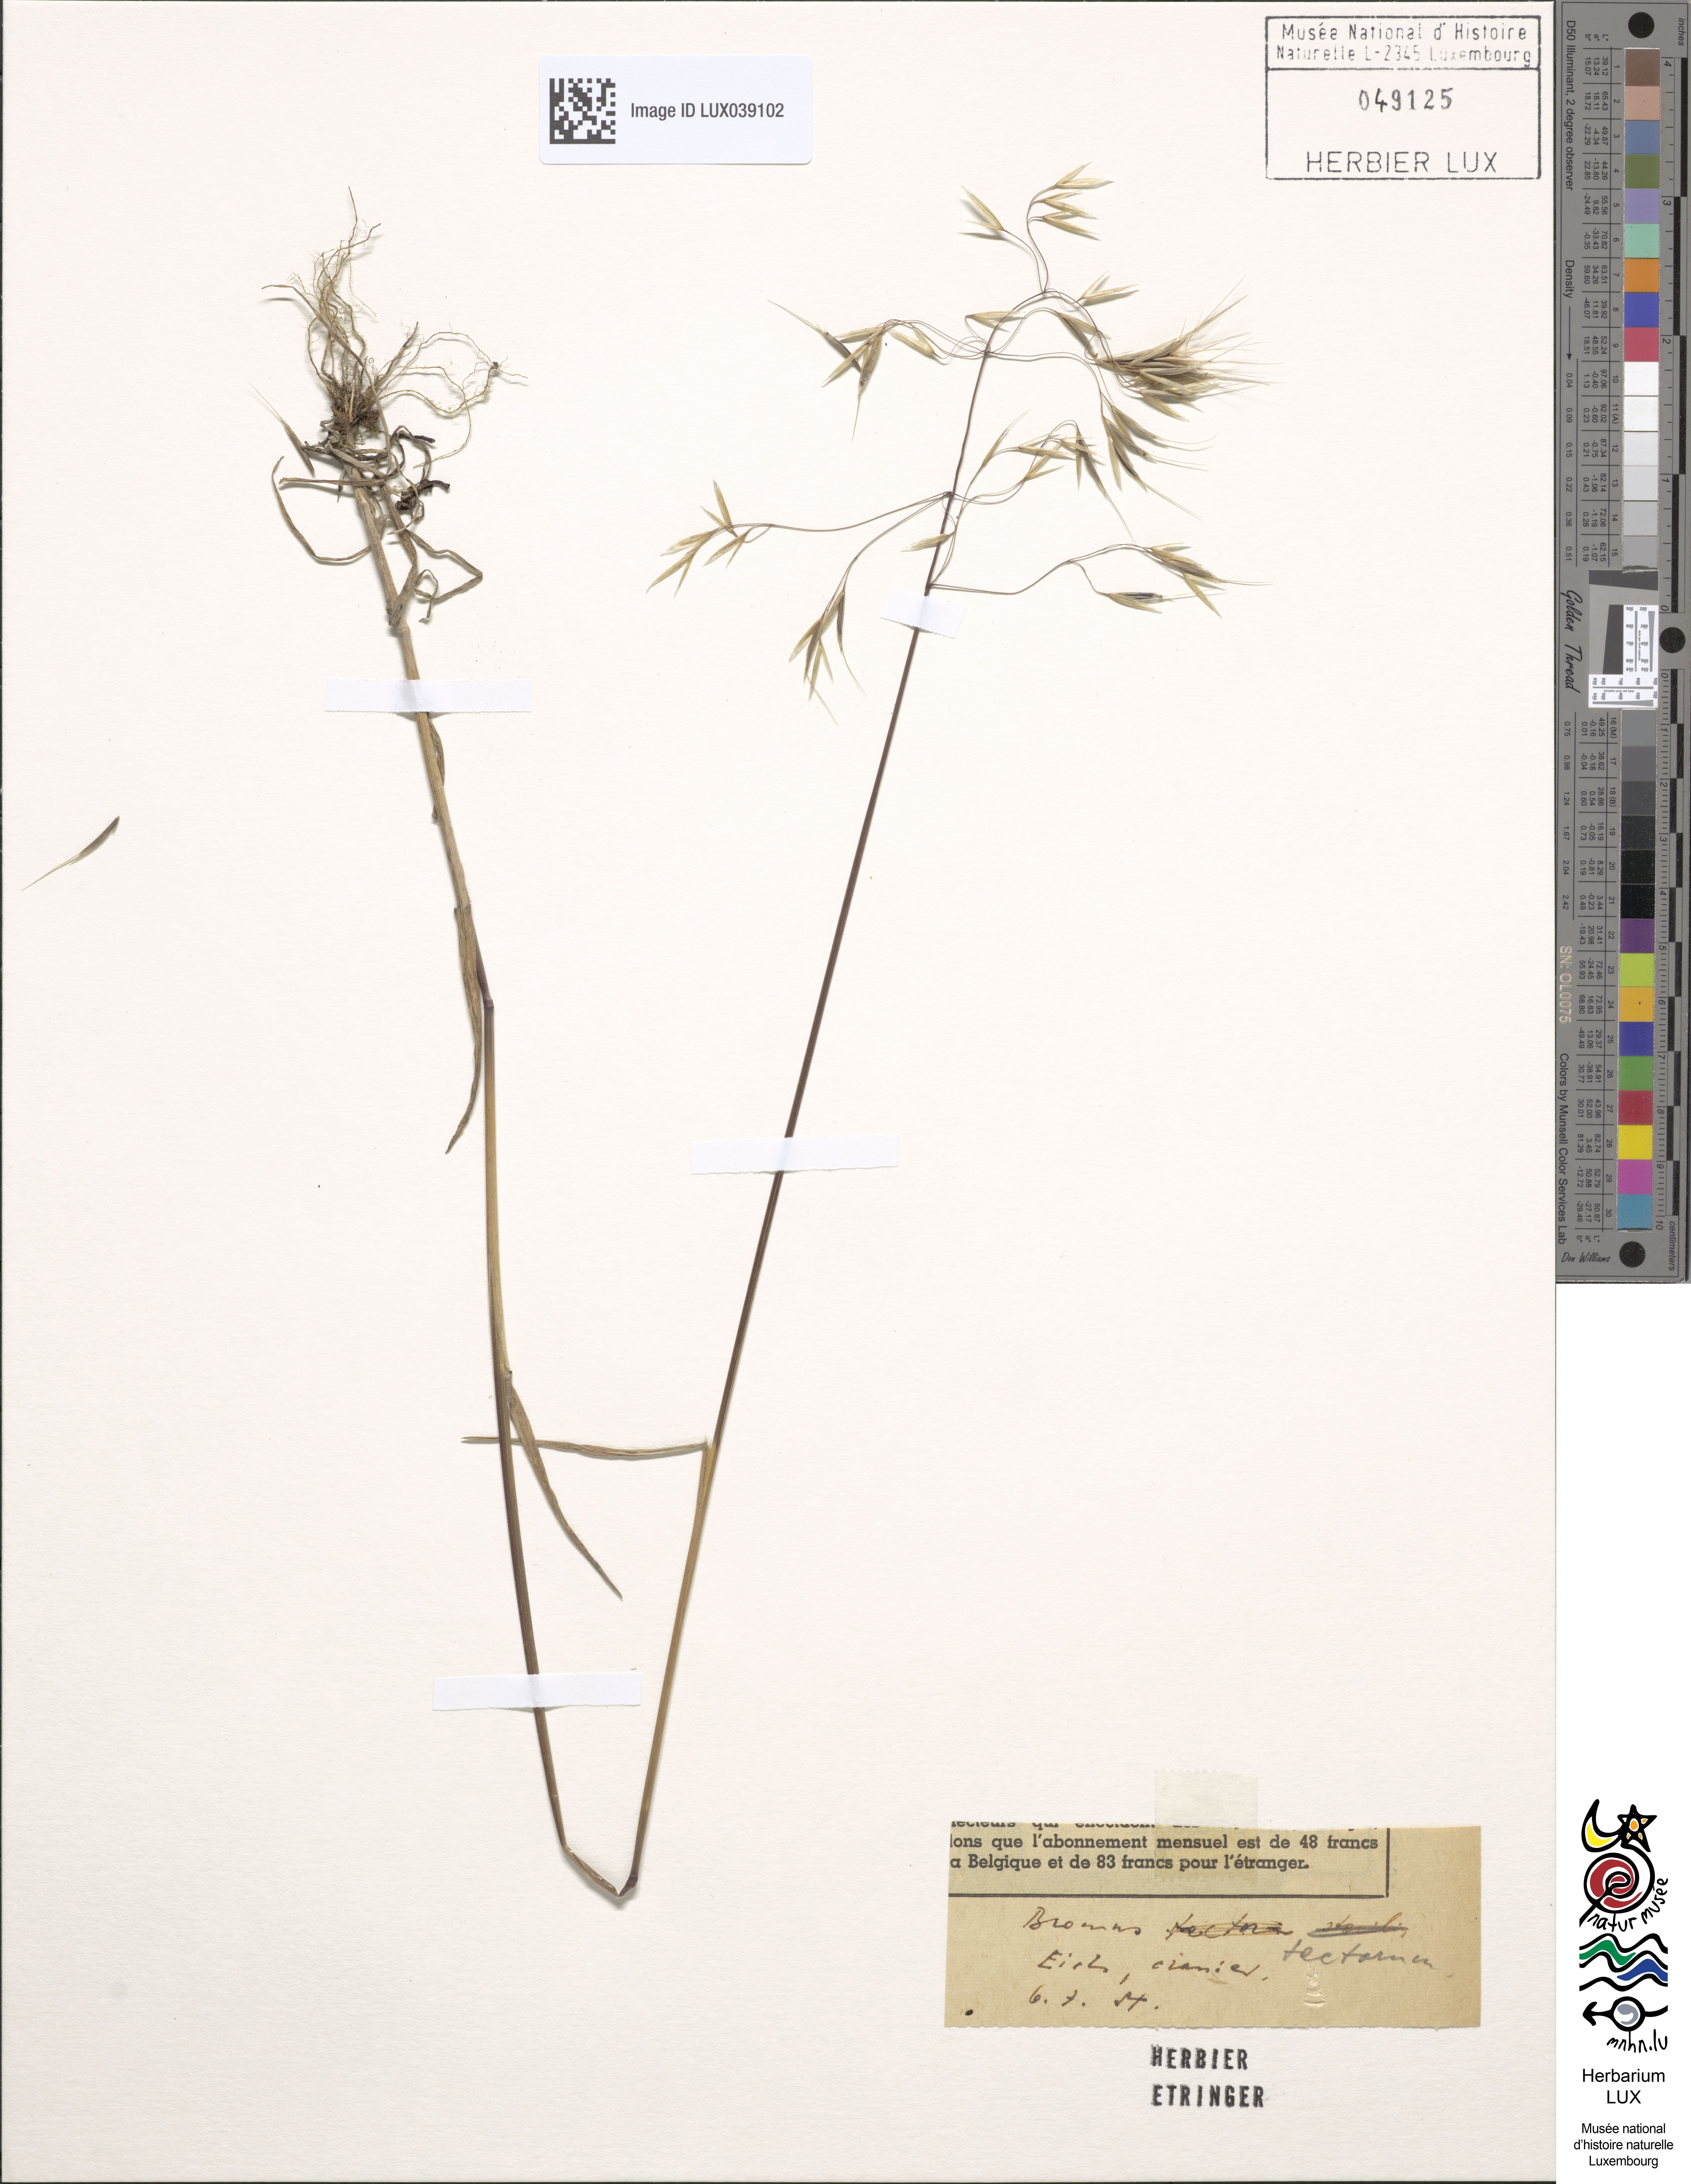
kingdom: Plantae
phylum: Tracheophyta
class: Liliopsida
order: Poales
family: Poaceae
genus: Bromus
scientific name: Bromus tectorum
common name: Cheatgrass
